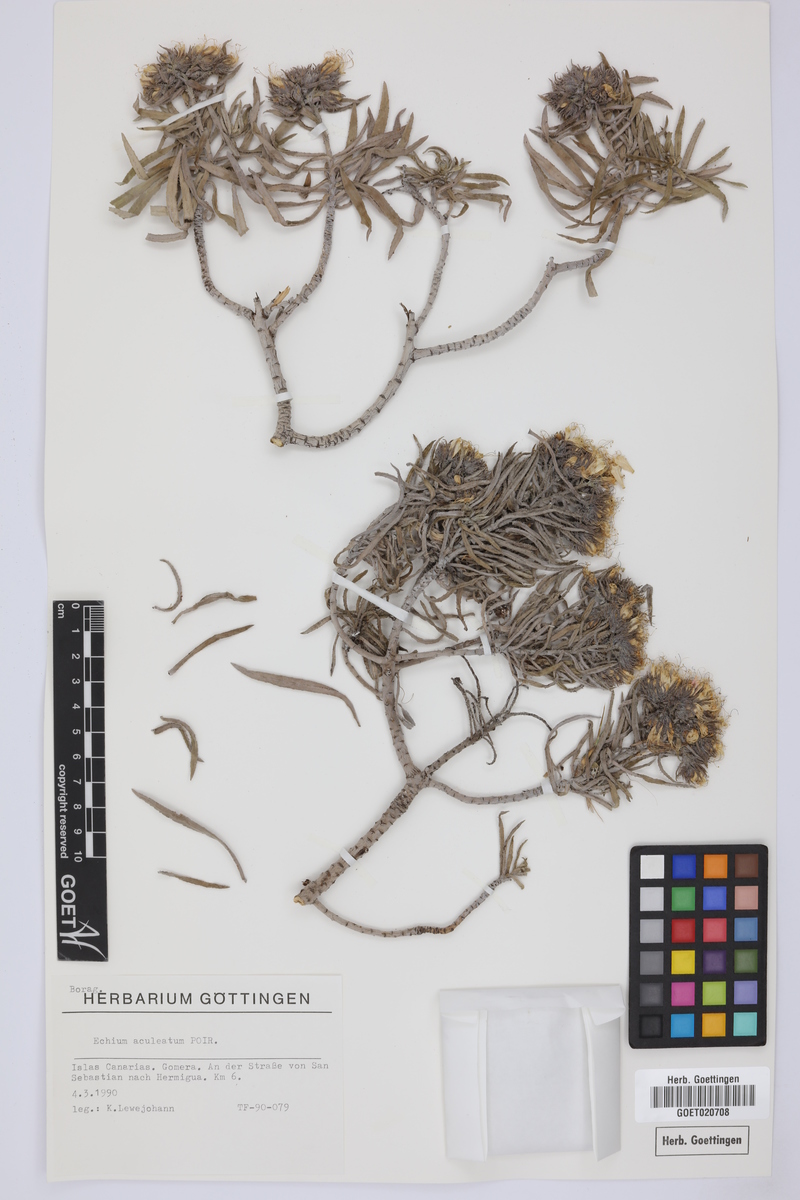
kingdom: Plantae
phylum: Tracheophyta
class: Magnoliopsida
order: Boraginales
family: Boraginaceae
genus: Echium
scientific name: Echium aculeatum
